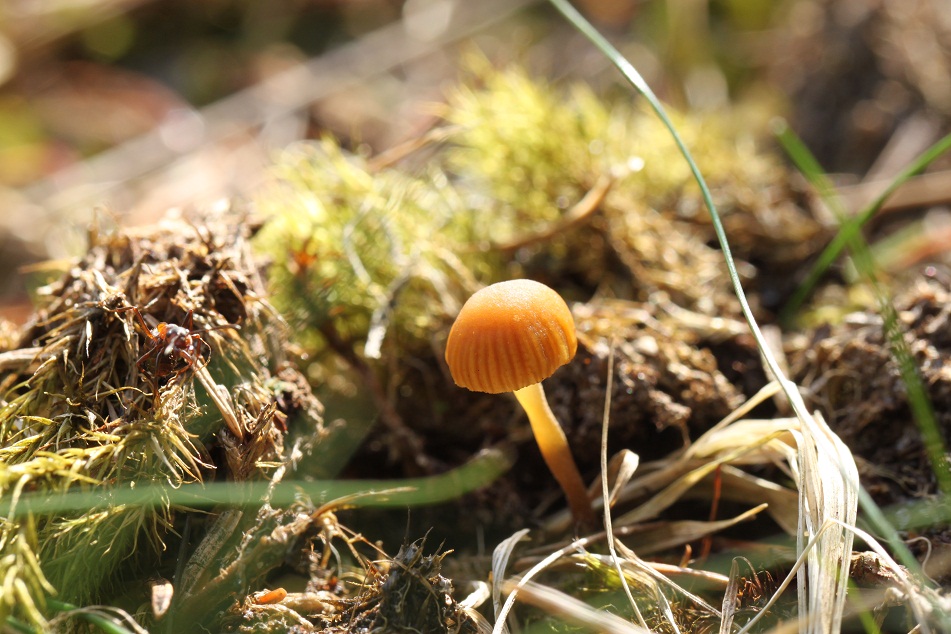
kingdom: Fungi
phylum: Basidiomycota
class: Agaricomycetes
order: Agaricales
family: Hymenogastraceae
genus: Galerina
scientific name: Galerina hypnorum
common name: mos-hjelmhat
